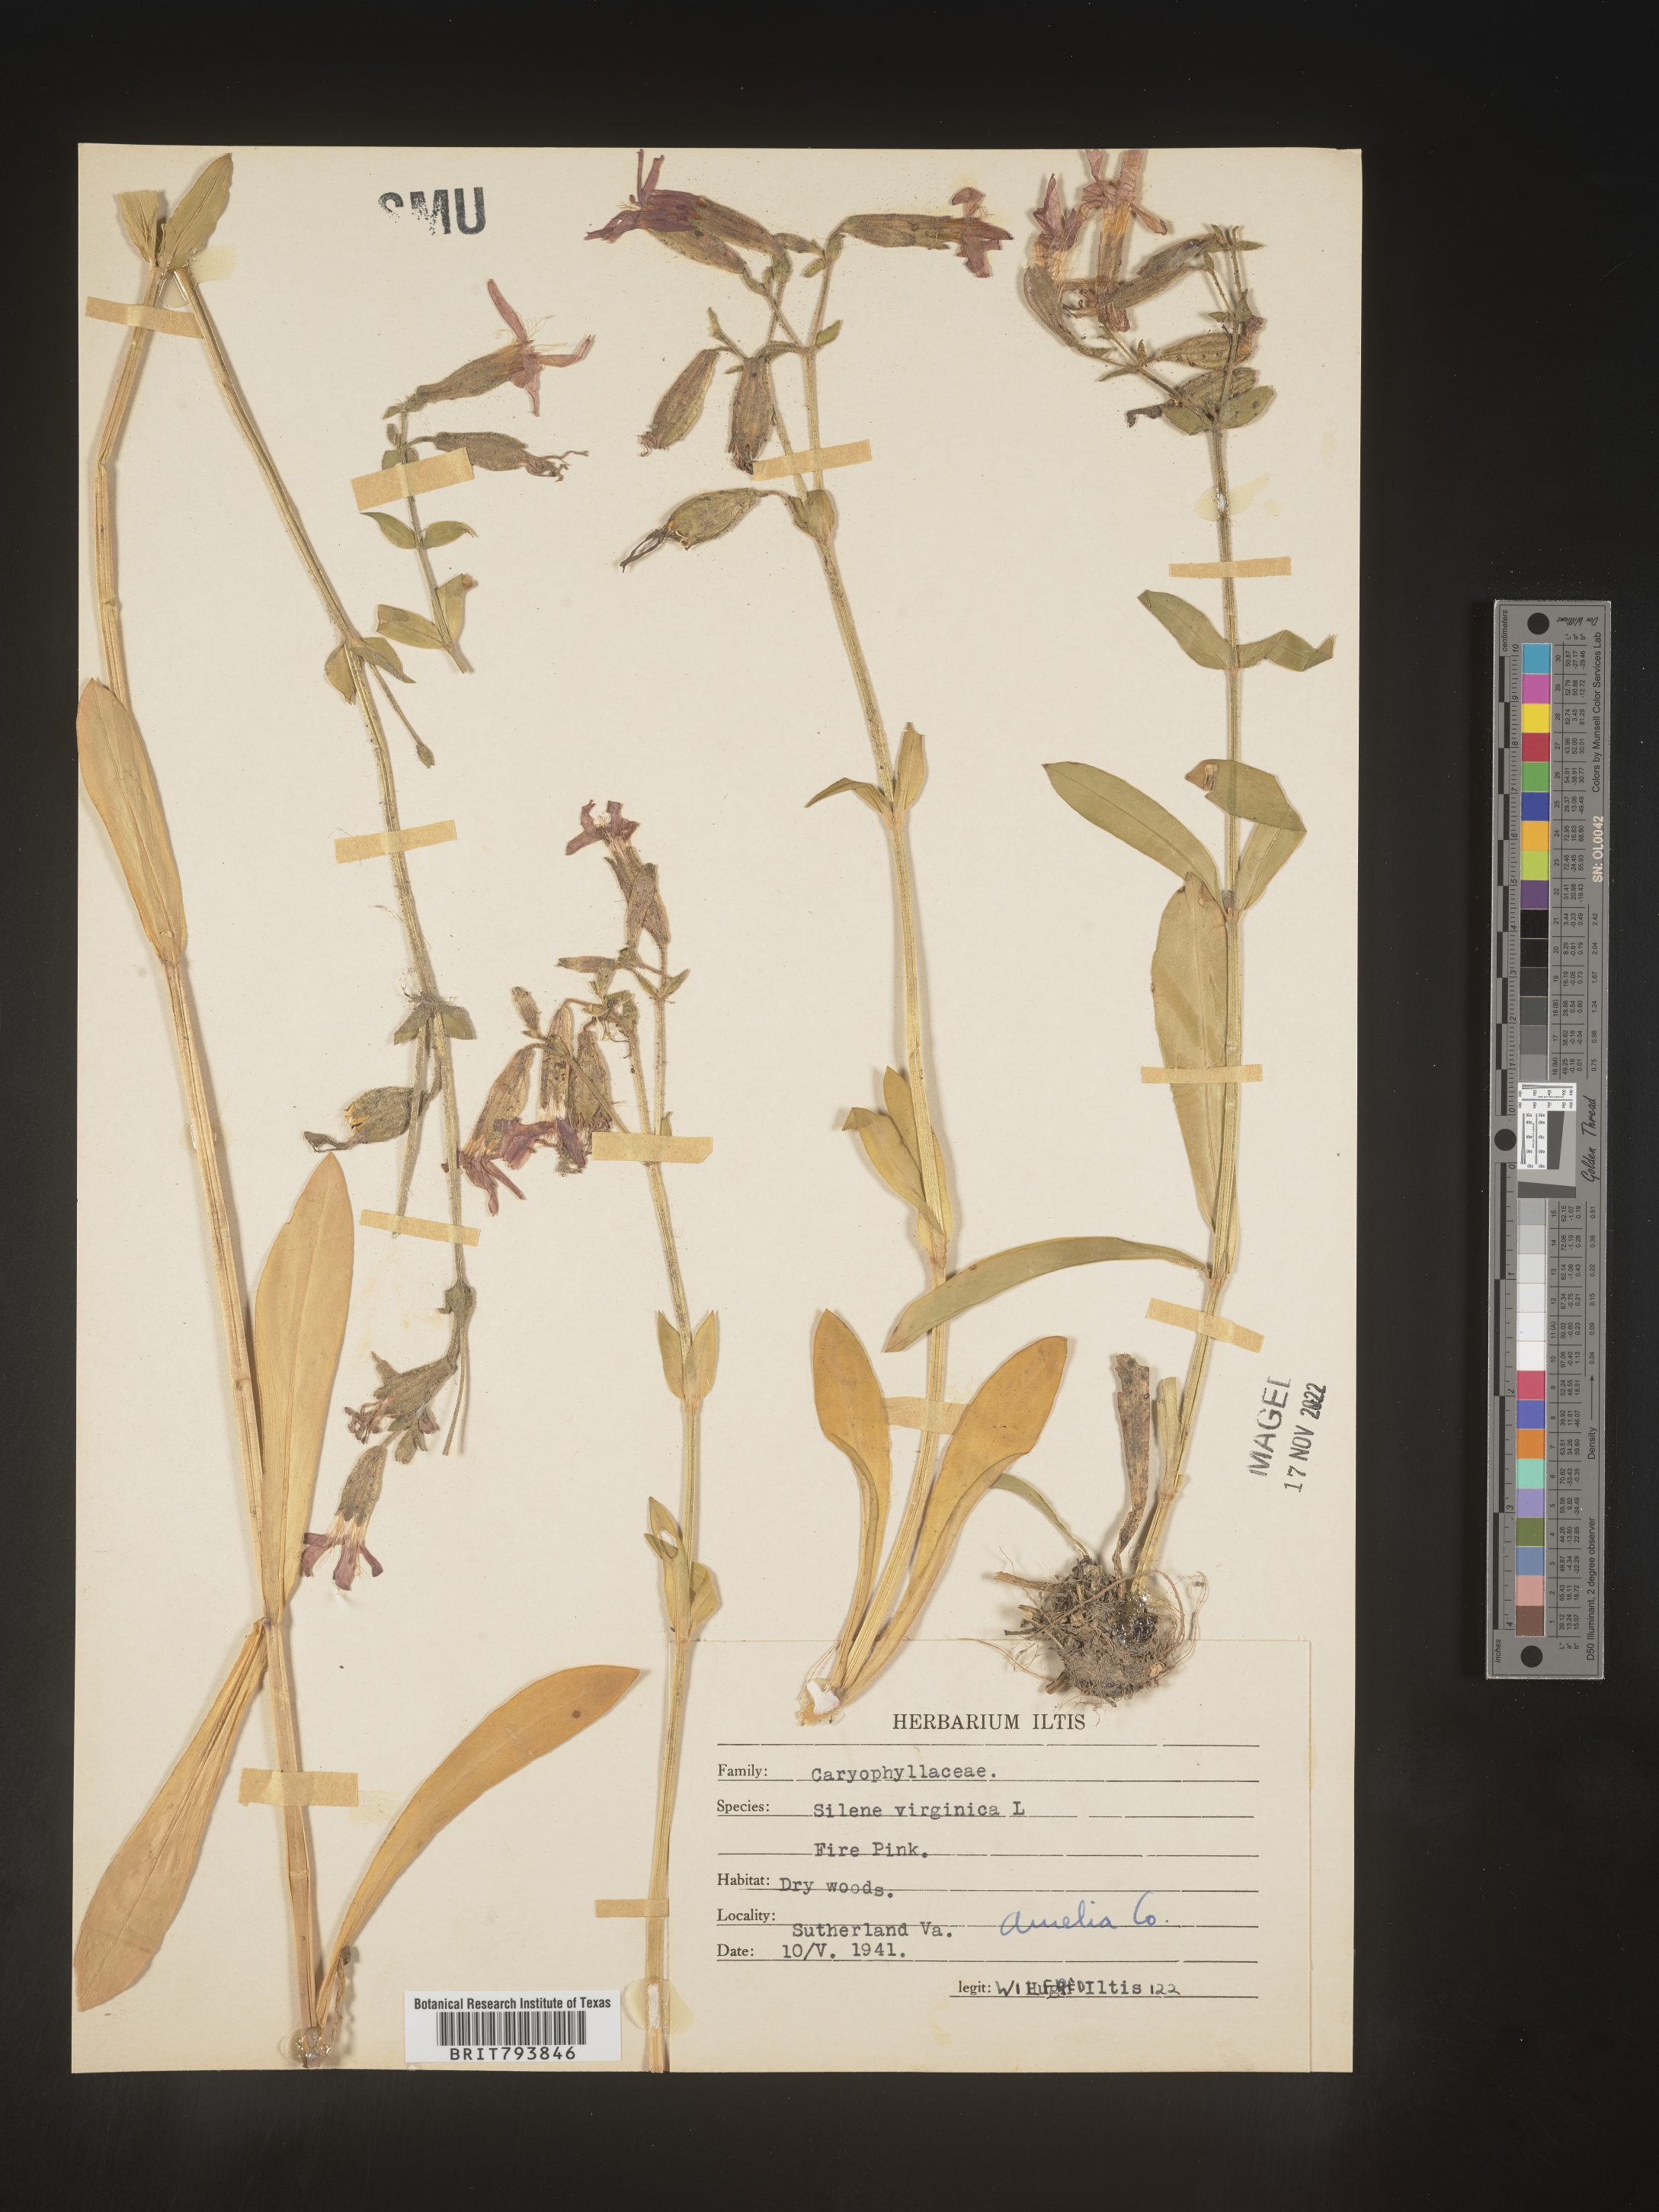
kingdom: Plantae
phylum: Tracheophyta
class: Magnoliopsida
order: Caryophyllales
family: Caryophyllaceae
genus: Silene
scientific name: Silene virginica
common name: Fire-pink
